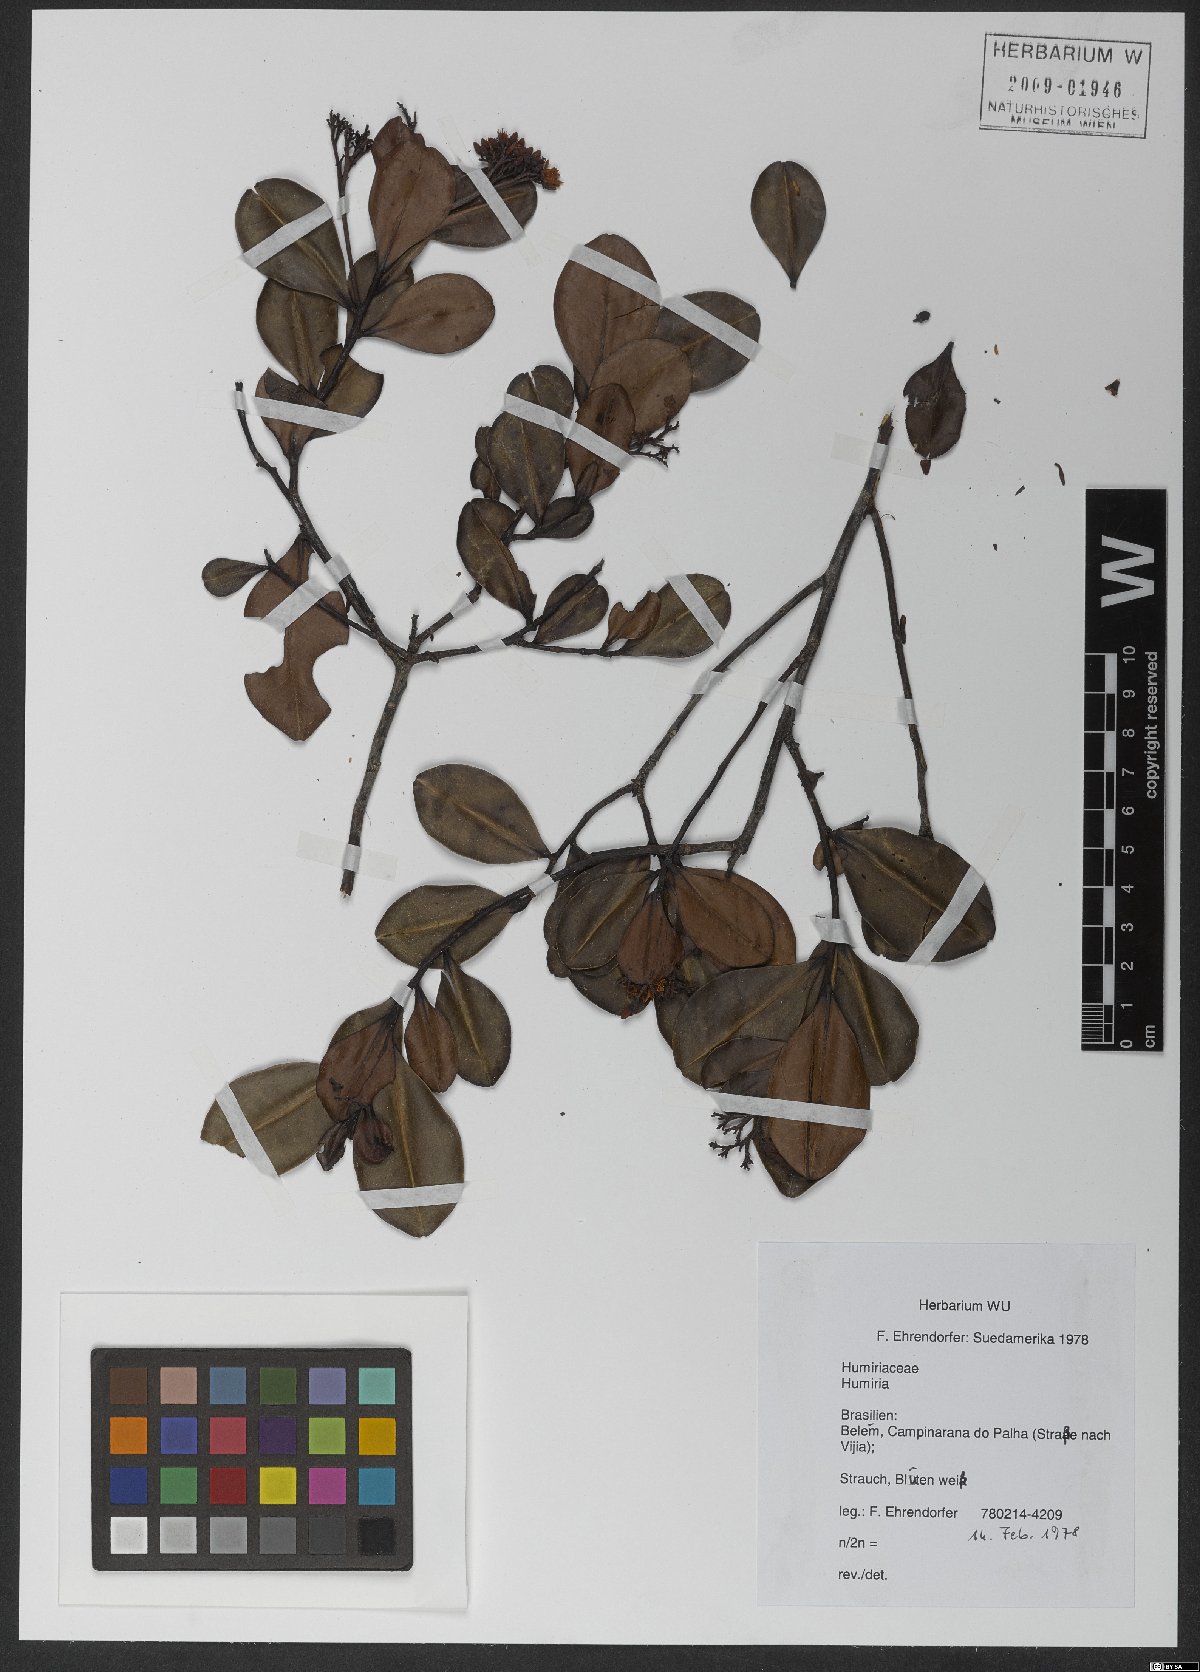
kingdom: Plantae
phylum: Tracheophyta
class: Magnoliopsida
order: Malpighiales
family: Humiriaceae
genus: Humiria
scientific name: Humiria
